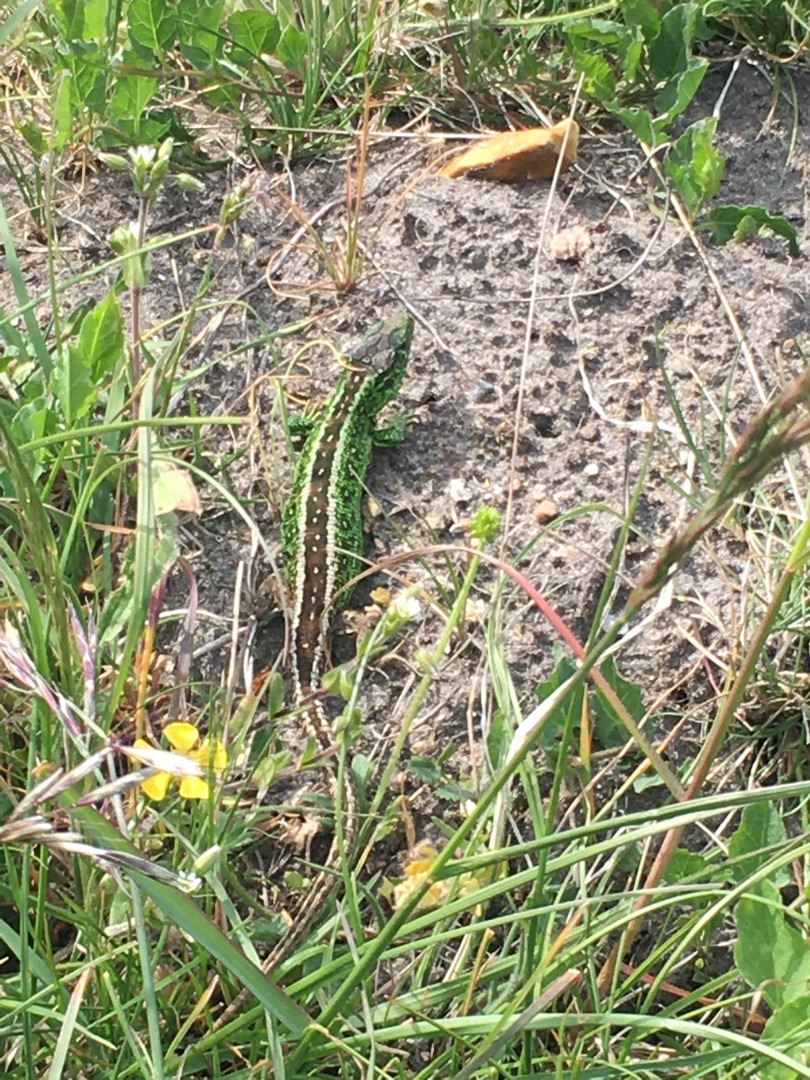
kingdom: Animalia
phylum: Chordata
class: Squamata
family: Lacertidae
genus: Lacerta
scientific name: Lacerta agilis
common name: Markfirben
